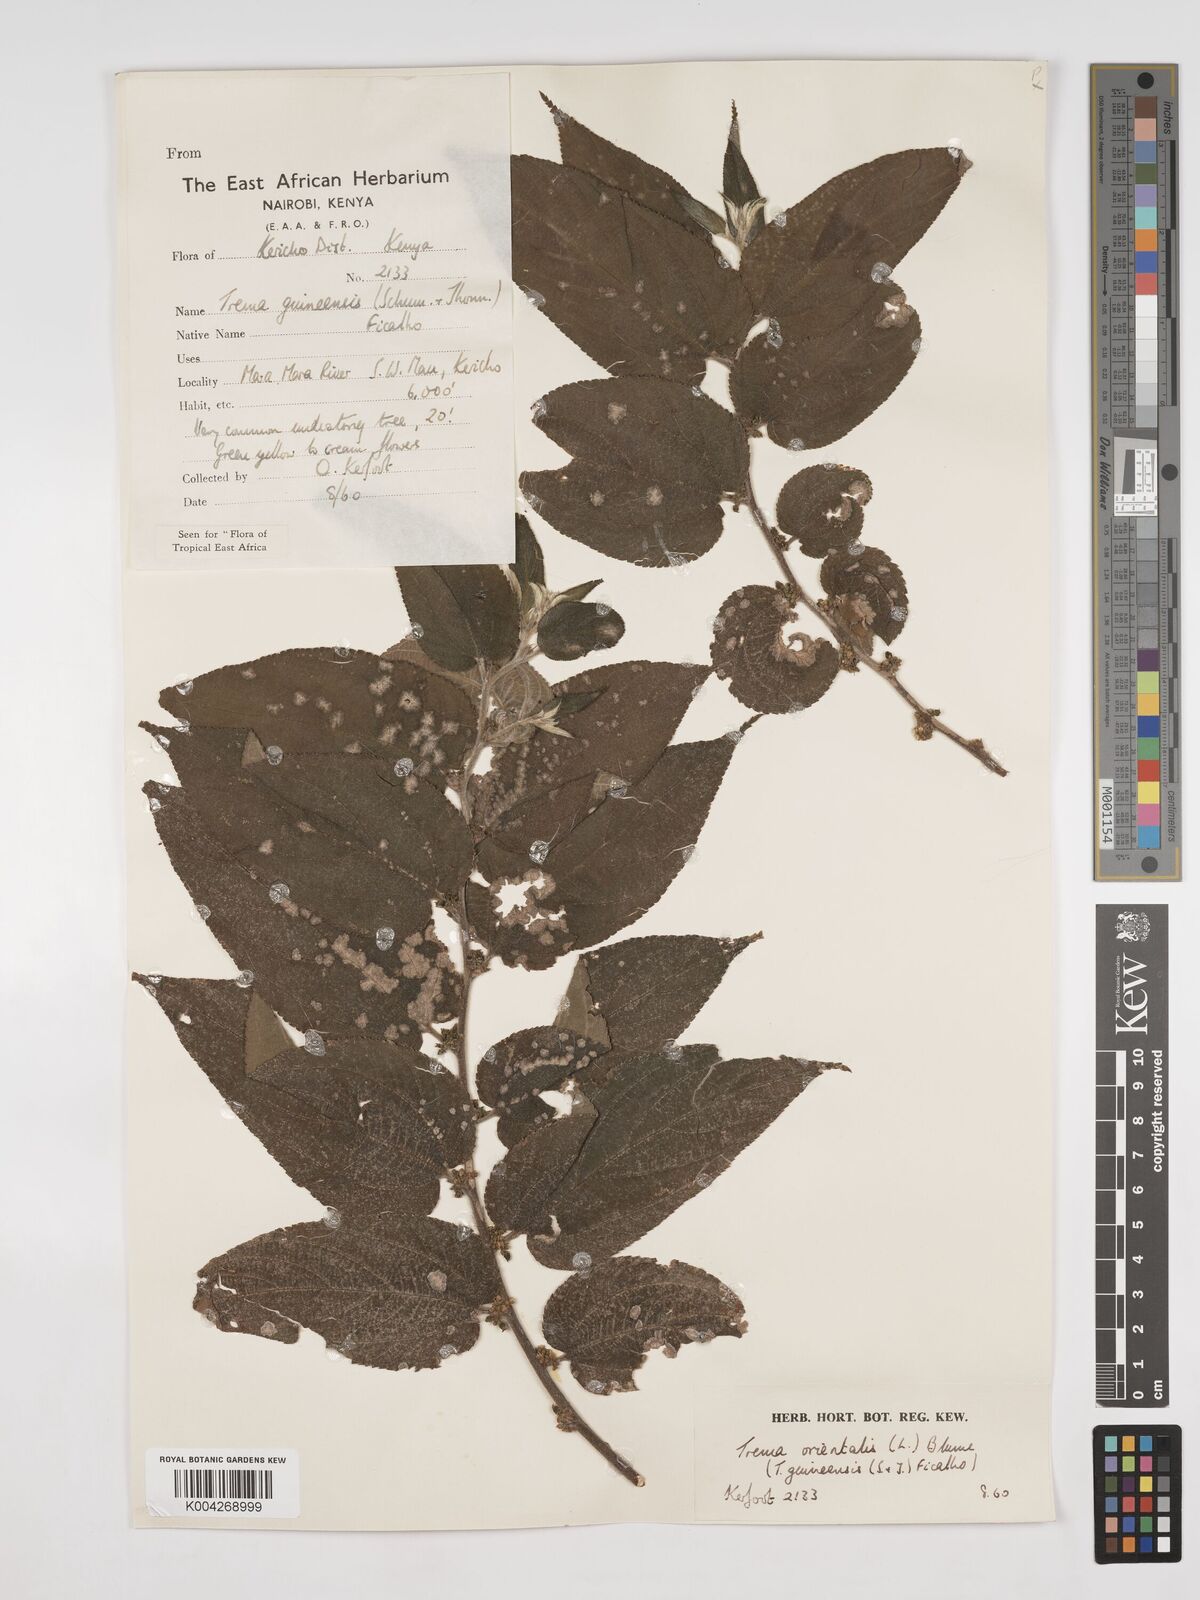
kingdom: Plantae
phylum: Tracheophyta
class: Magnoliopsida
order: Rosales
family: Cannabaceae
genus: Trema
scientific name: Trema orientale
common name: Indian charcoal tree
